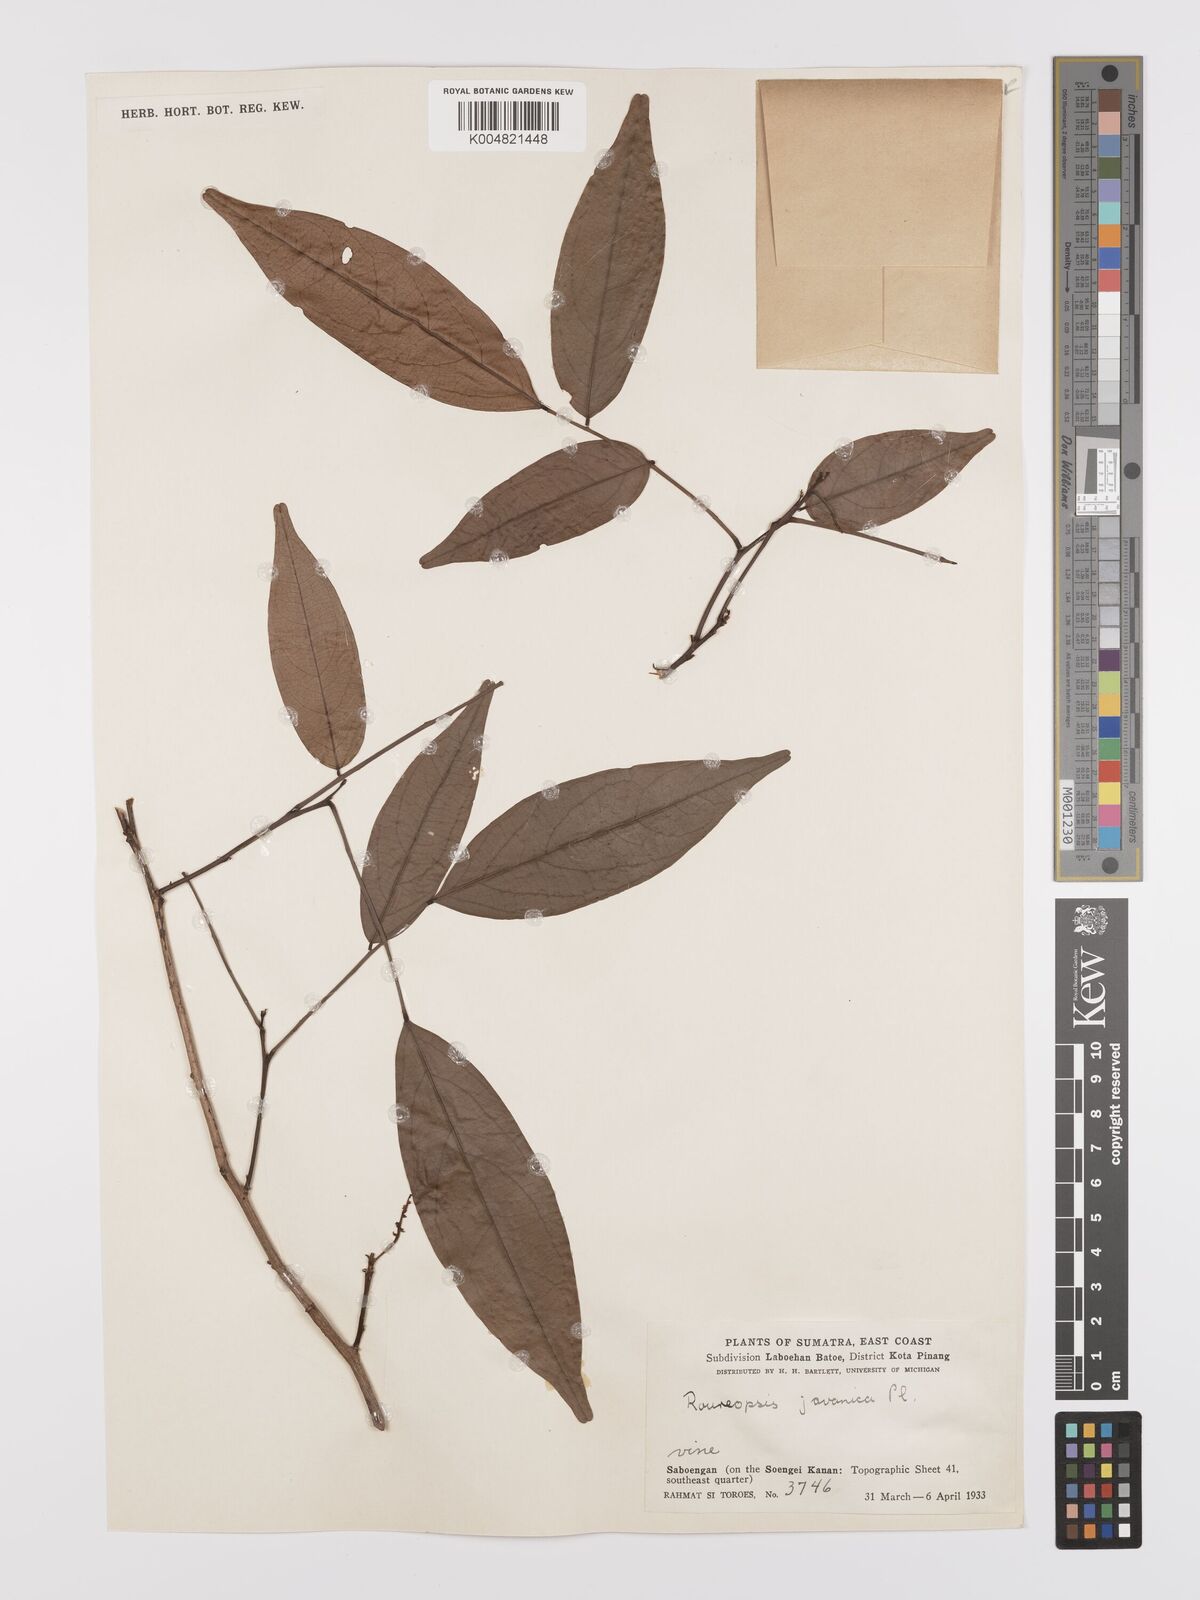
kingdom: Plantae
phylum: Tracheophyta
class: Magnoliopsida
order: Oxalidales
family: Connaraceae
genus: Rourea
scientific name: Rourea emarginata
